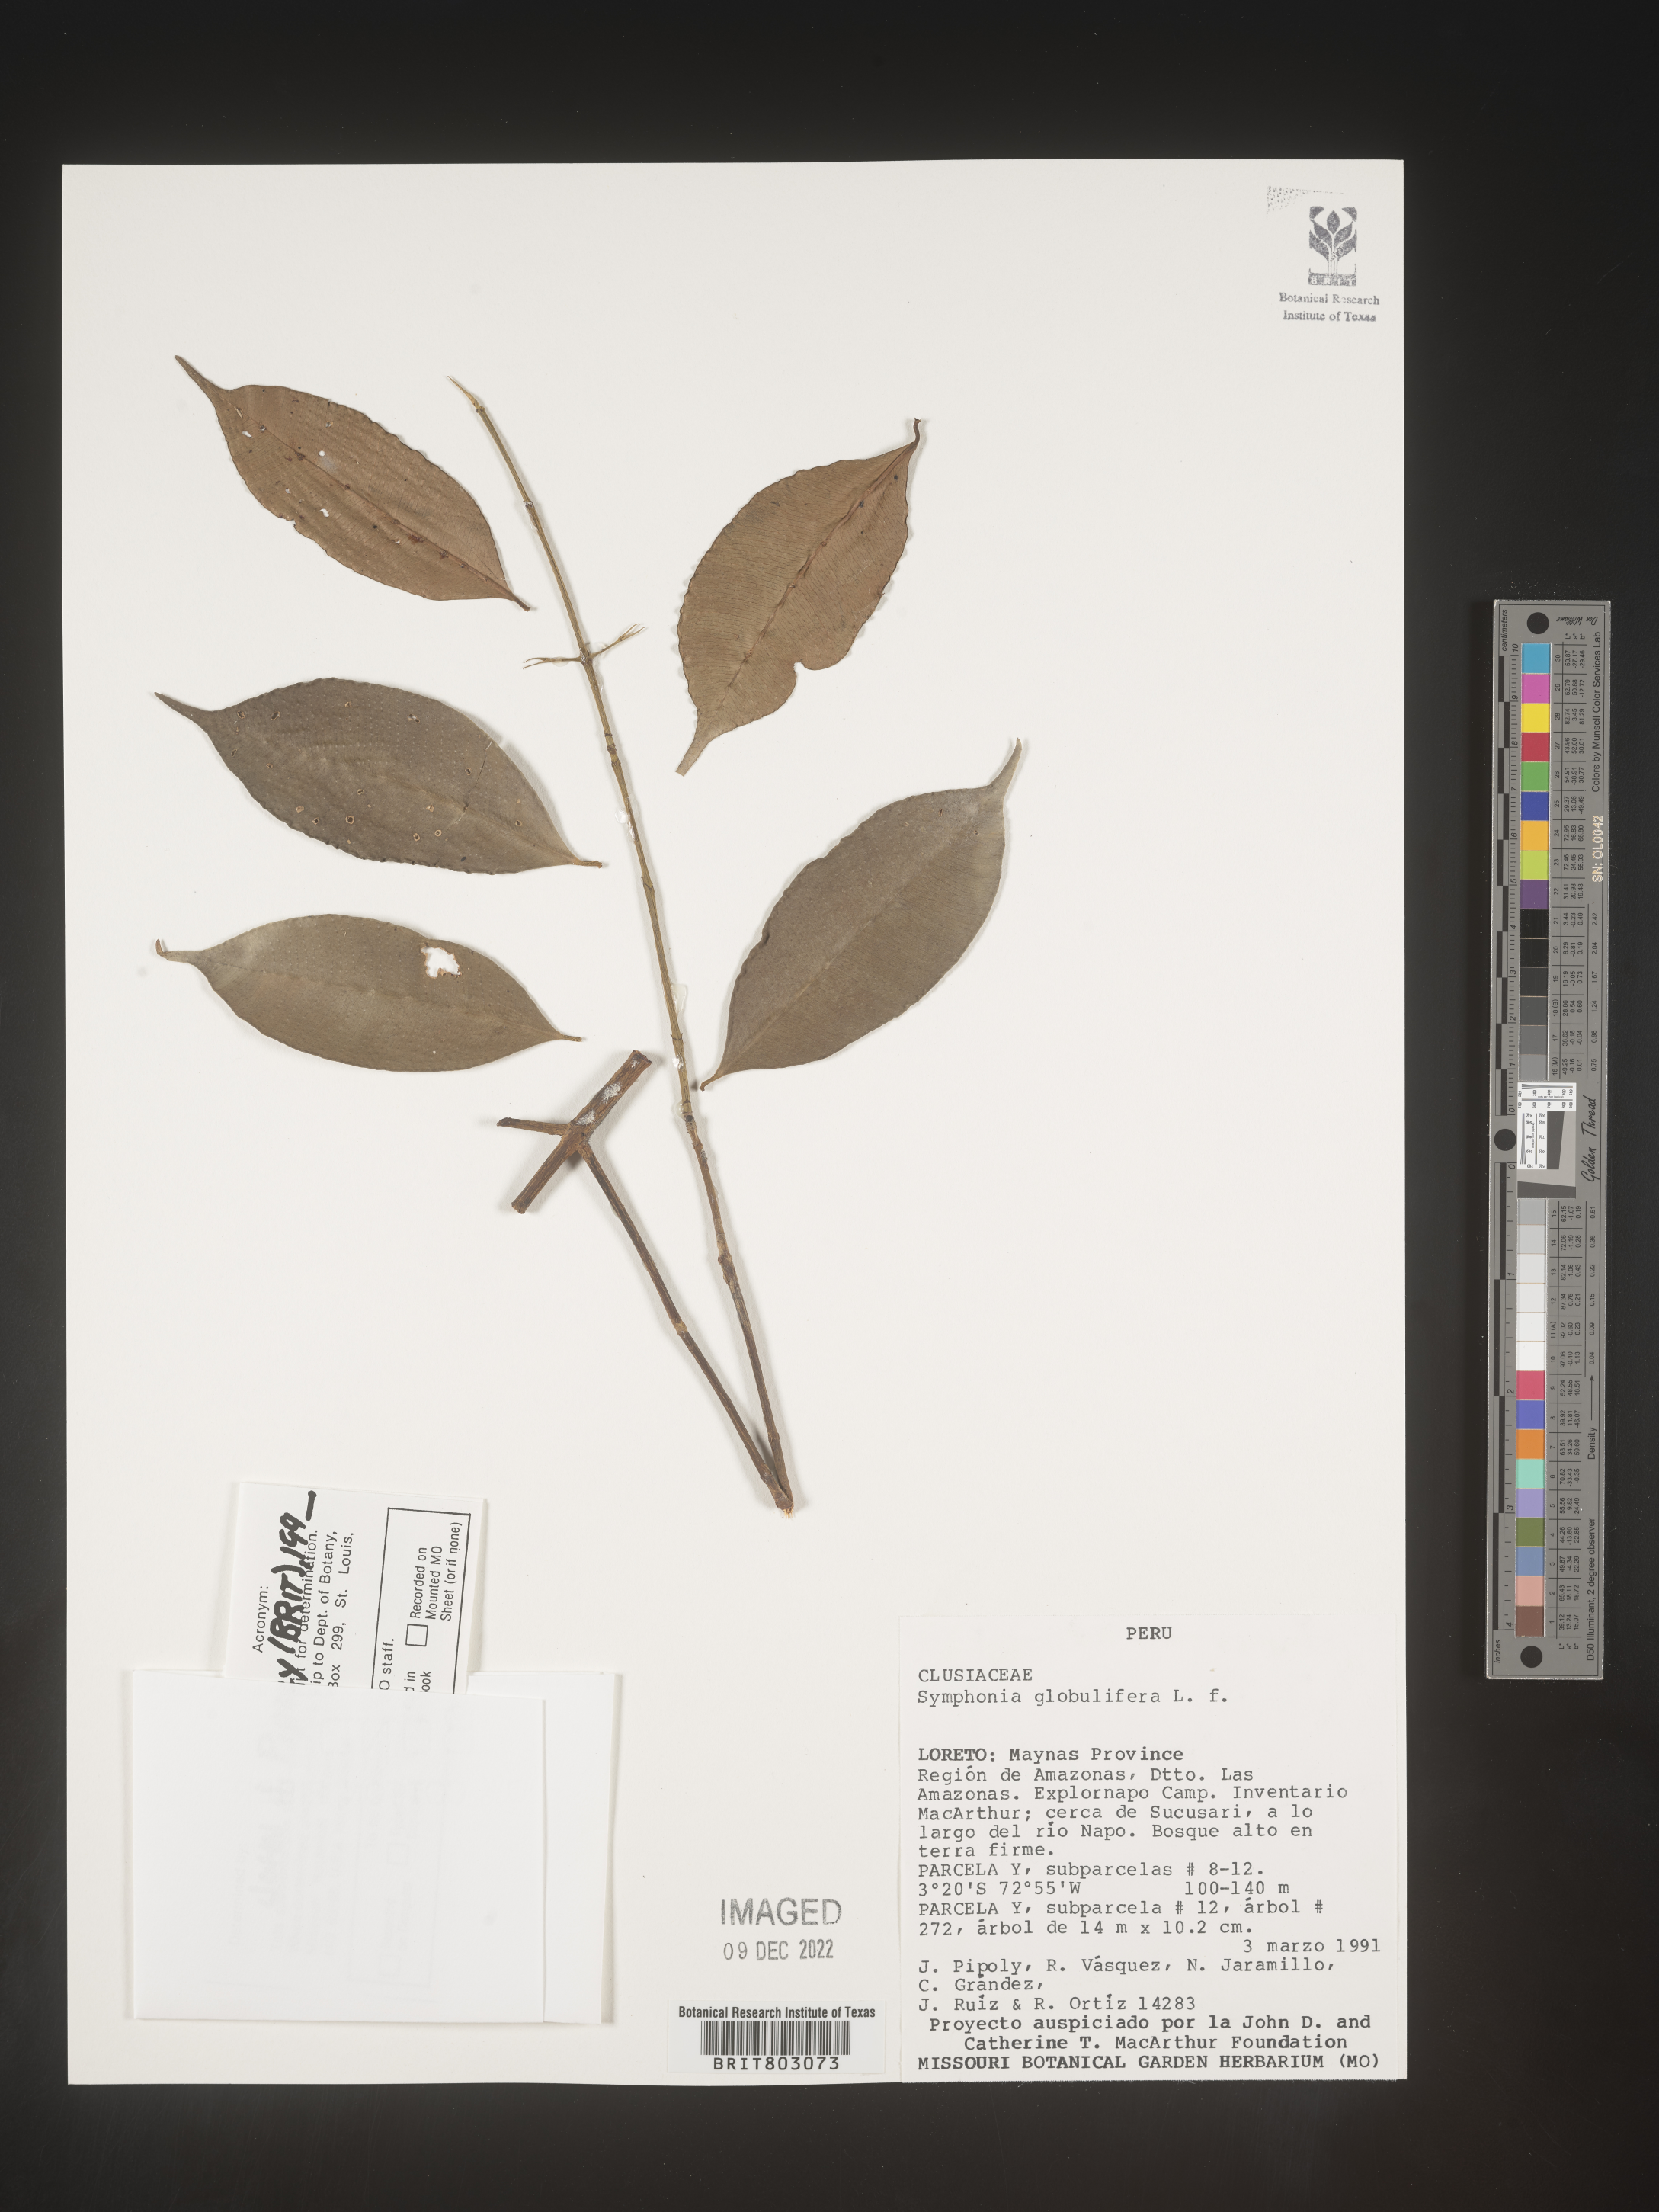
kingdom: Plantae
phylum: Tracheophyta
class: Magnoliopsida
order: Malpighiales
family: Clusiaceae
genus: Symphonia
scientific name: Symphonia
